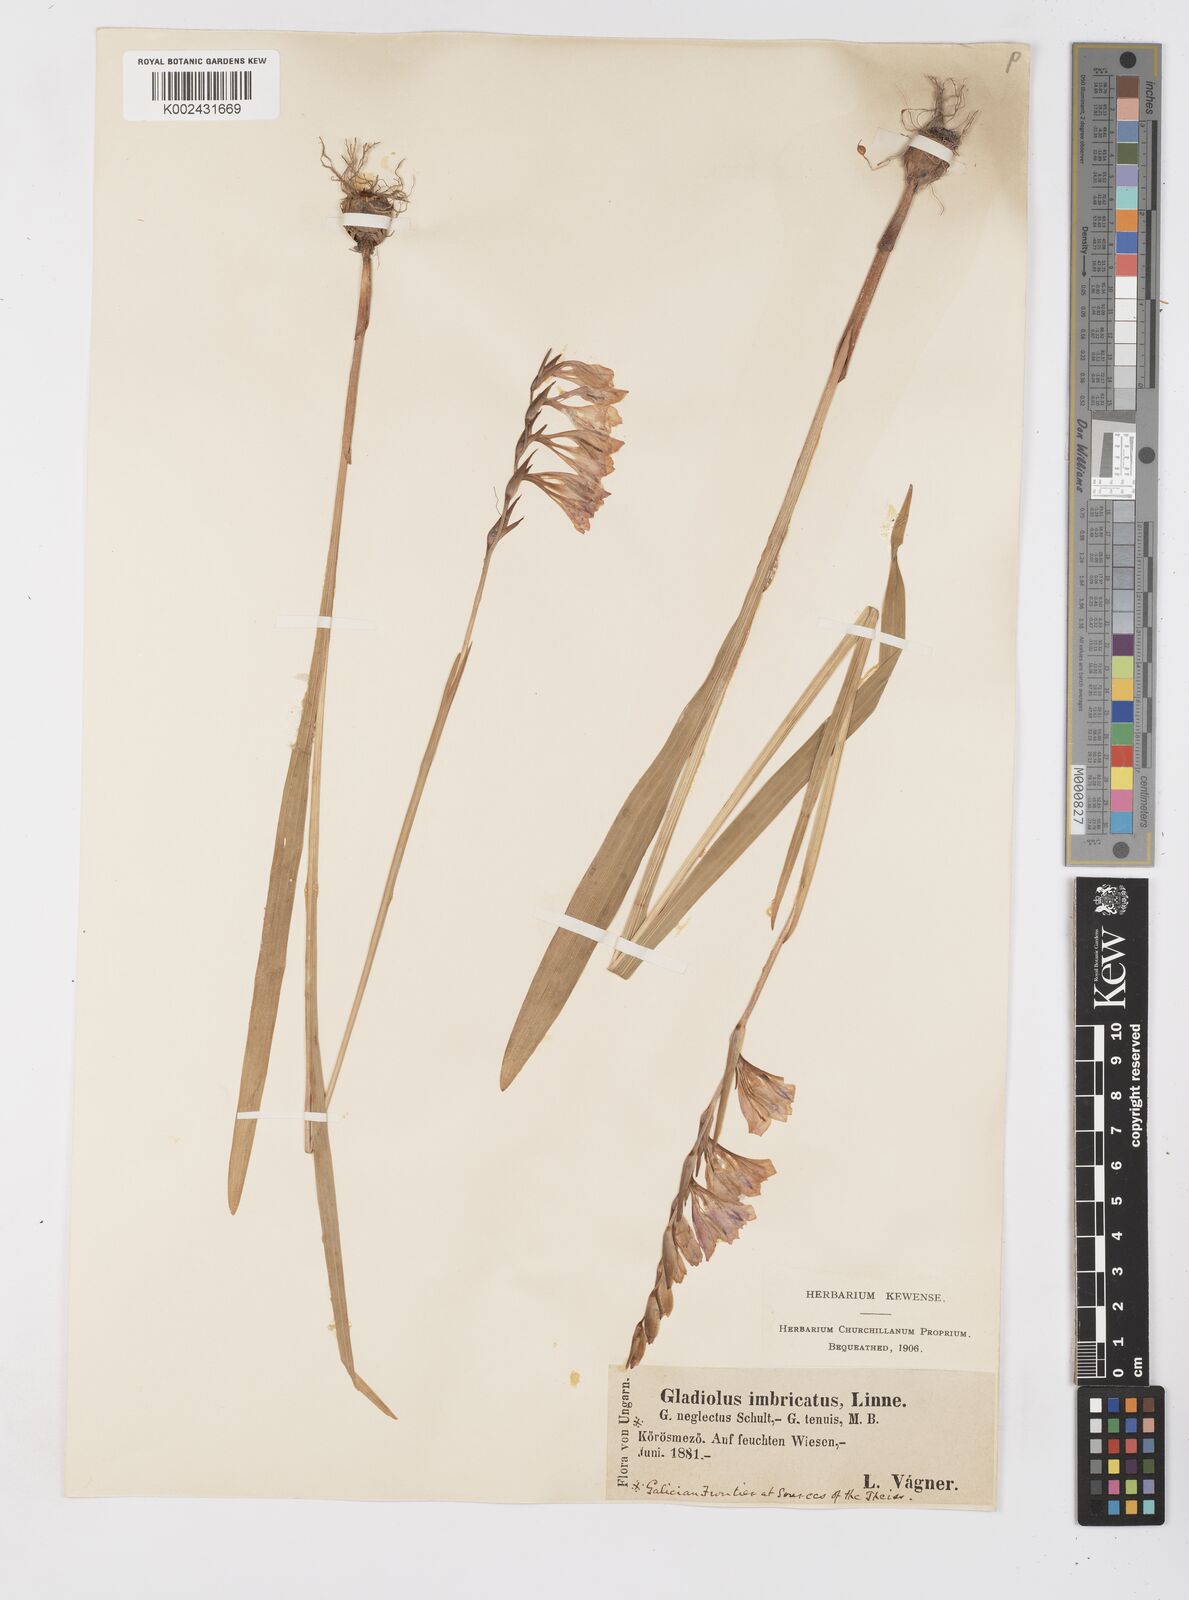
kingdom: Plantae
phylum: Tracheophyta
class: Liliopsida
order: Asparagales
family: Iridaceae
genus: Gladiolus
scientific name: Gladiolus imbricatus
